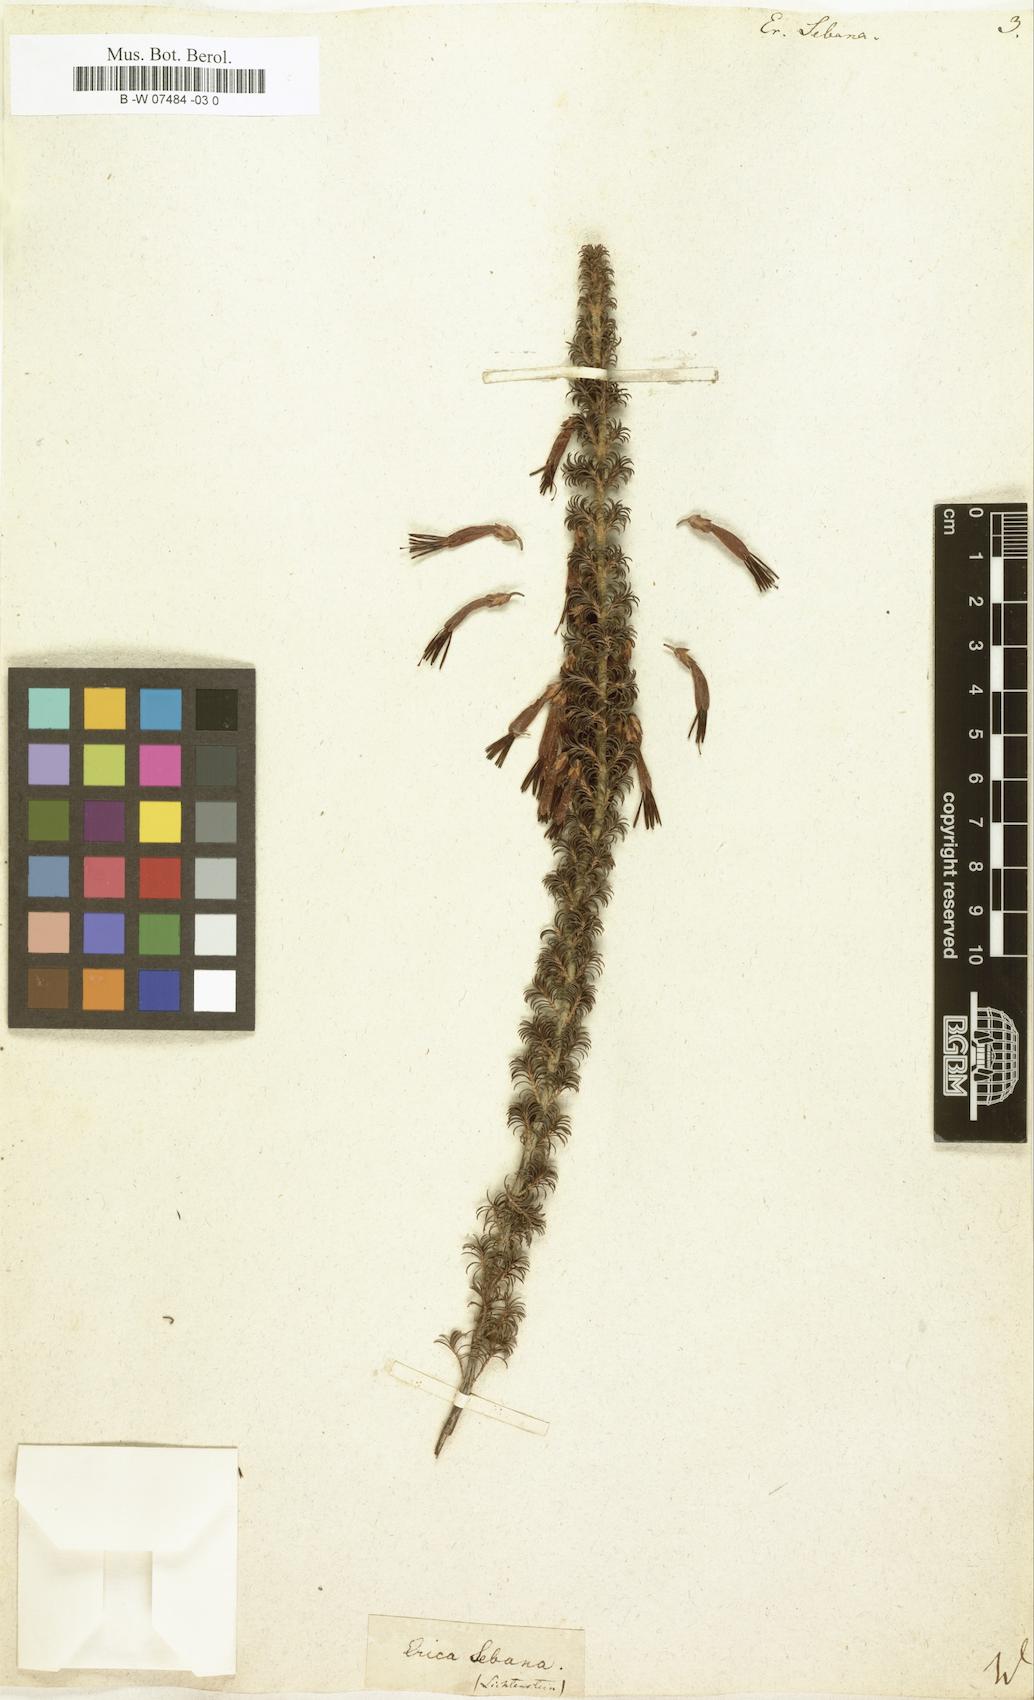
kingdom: Plantae
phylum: Tracheophyta
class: Magnoliopsida
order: Ericales
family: Ericaceae
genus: Erica
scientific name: Erica coccinea
